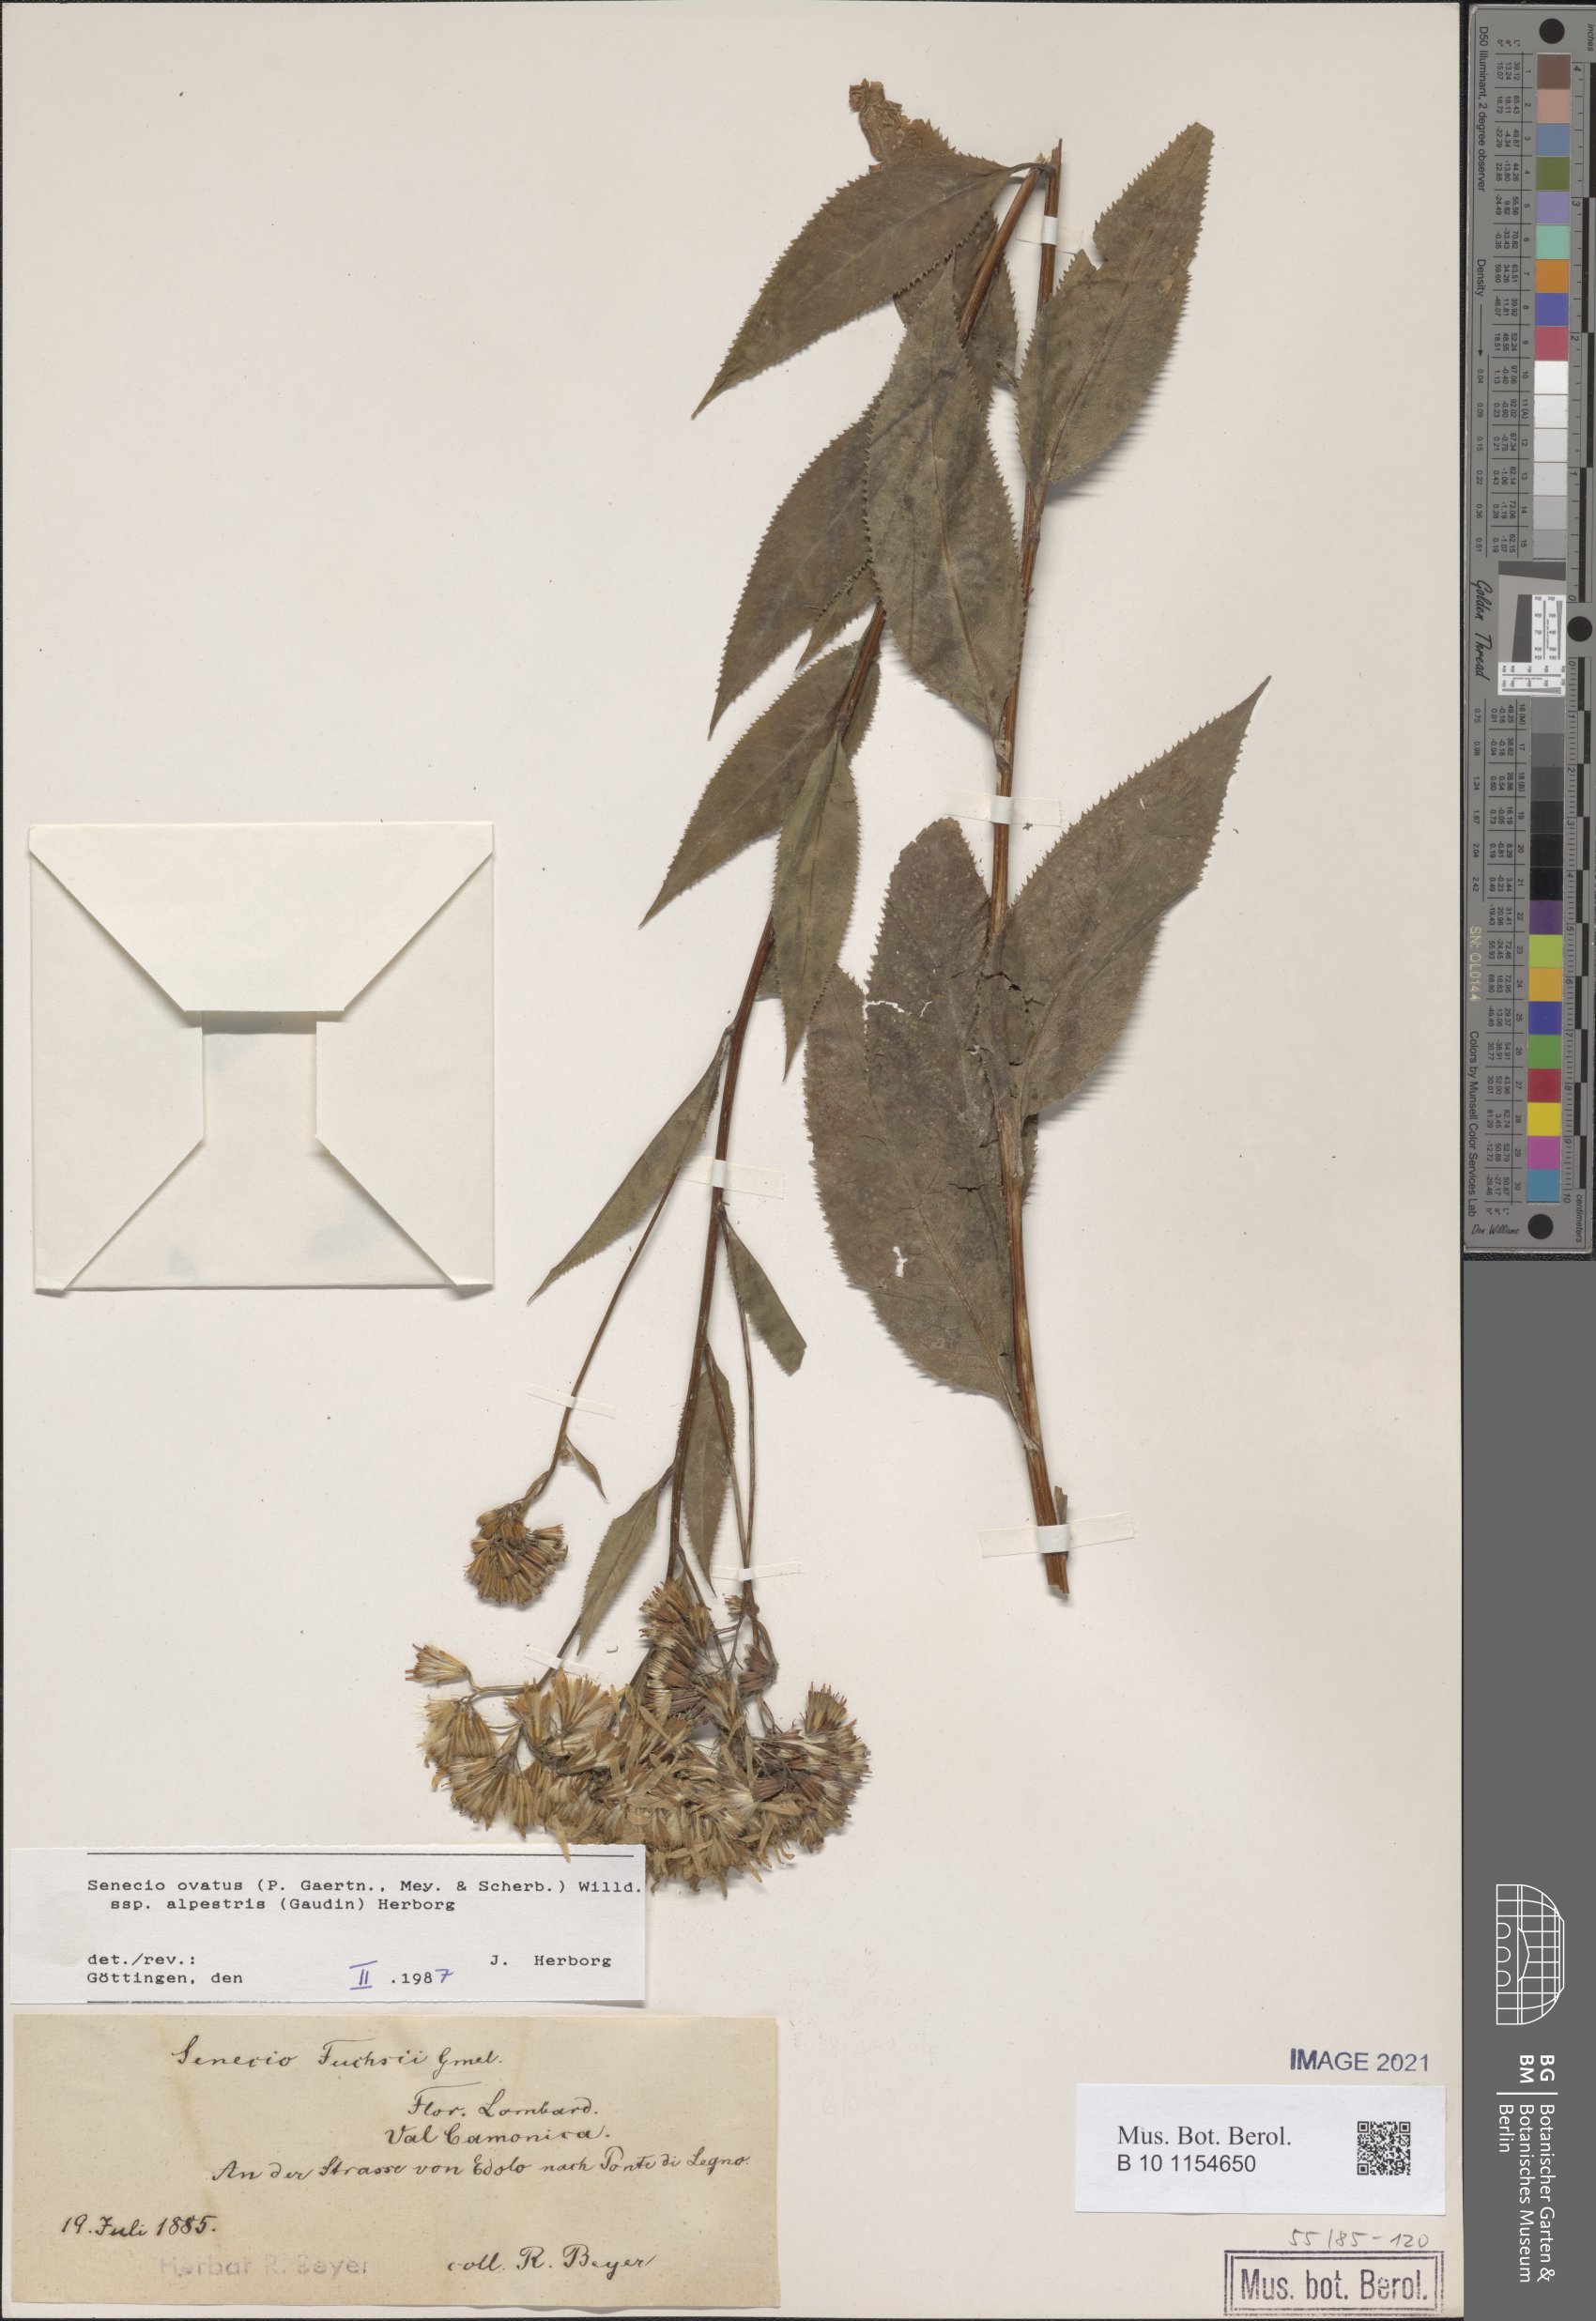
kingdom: Plantae
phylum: Tracheophyta
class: Magnoliopsida
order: Asterales
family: Asteraceae
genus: Senecio
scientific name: Senecio ovatus
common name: Wood ragwort
